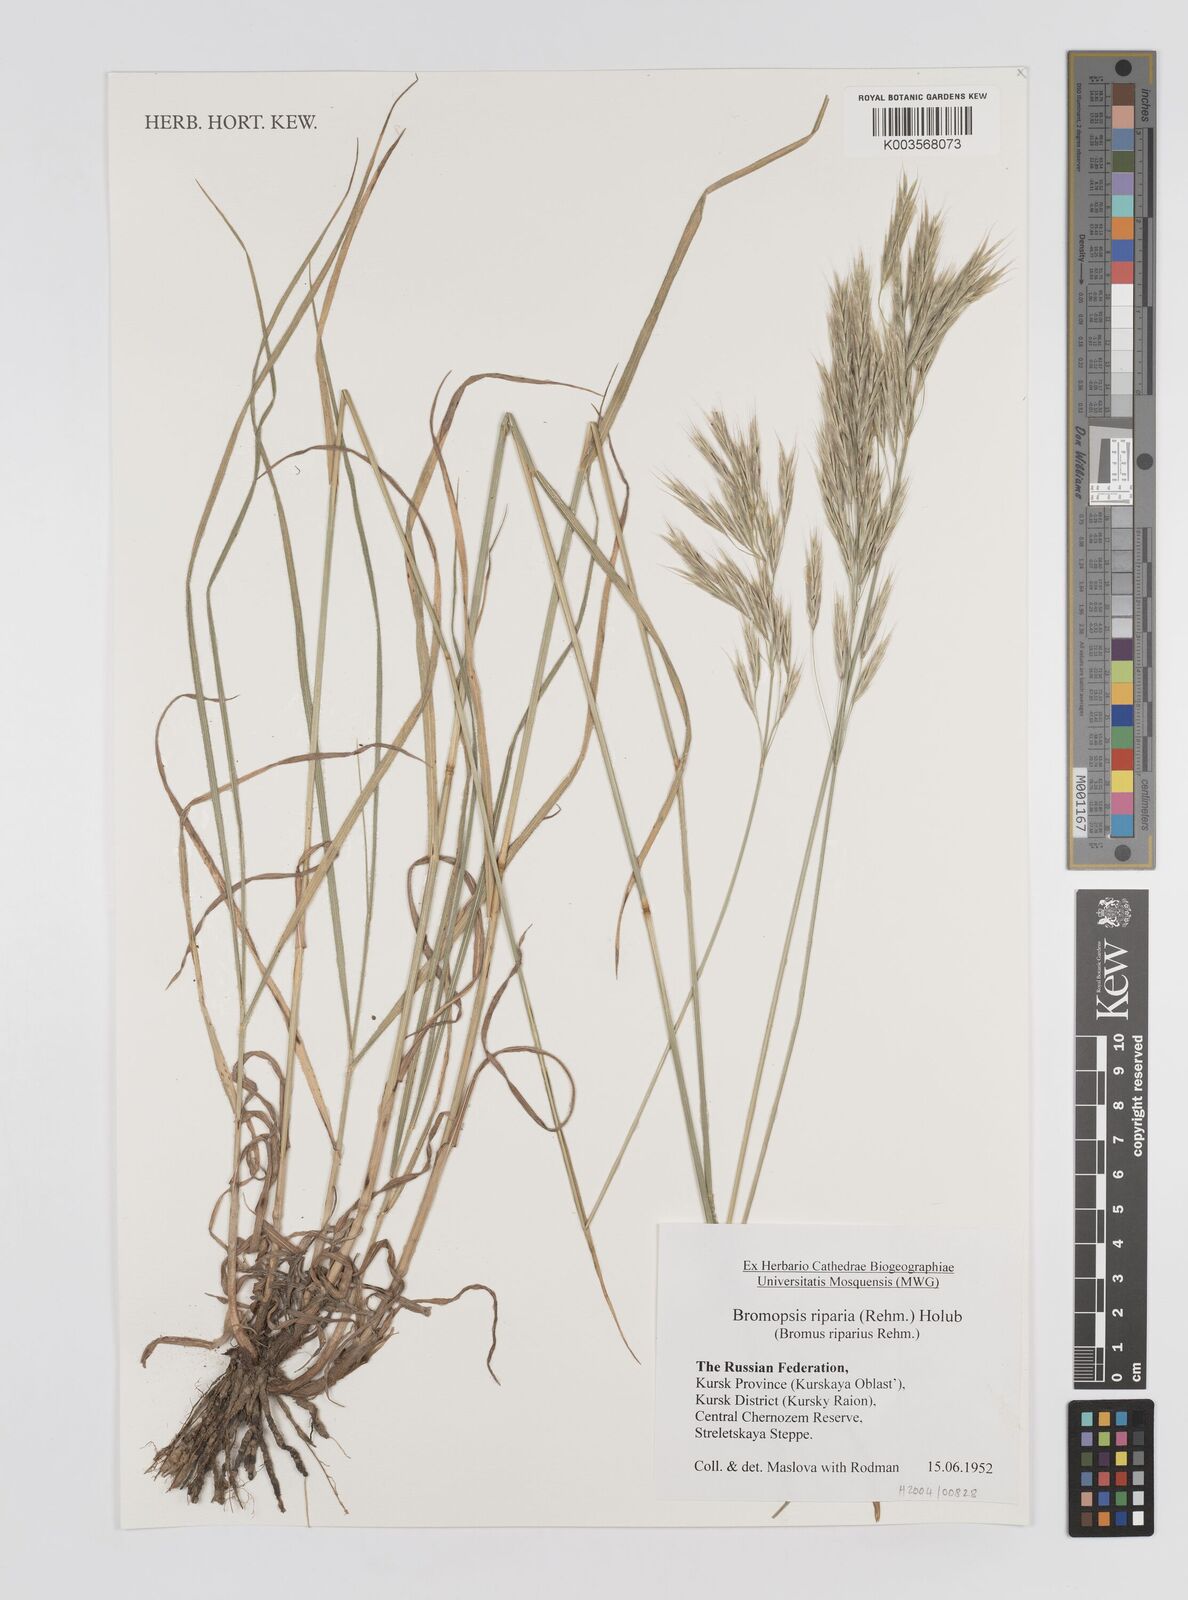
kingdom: Plantae
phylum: Tracheophyta
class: Liliopsida
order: Poales
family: Poaceae
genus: Bromus
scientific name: Bromus riparius
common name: Meadow brome
